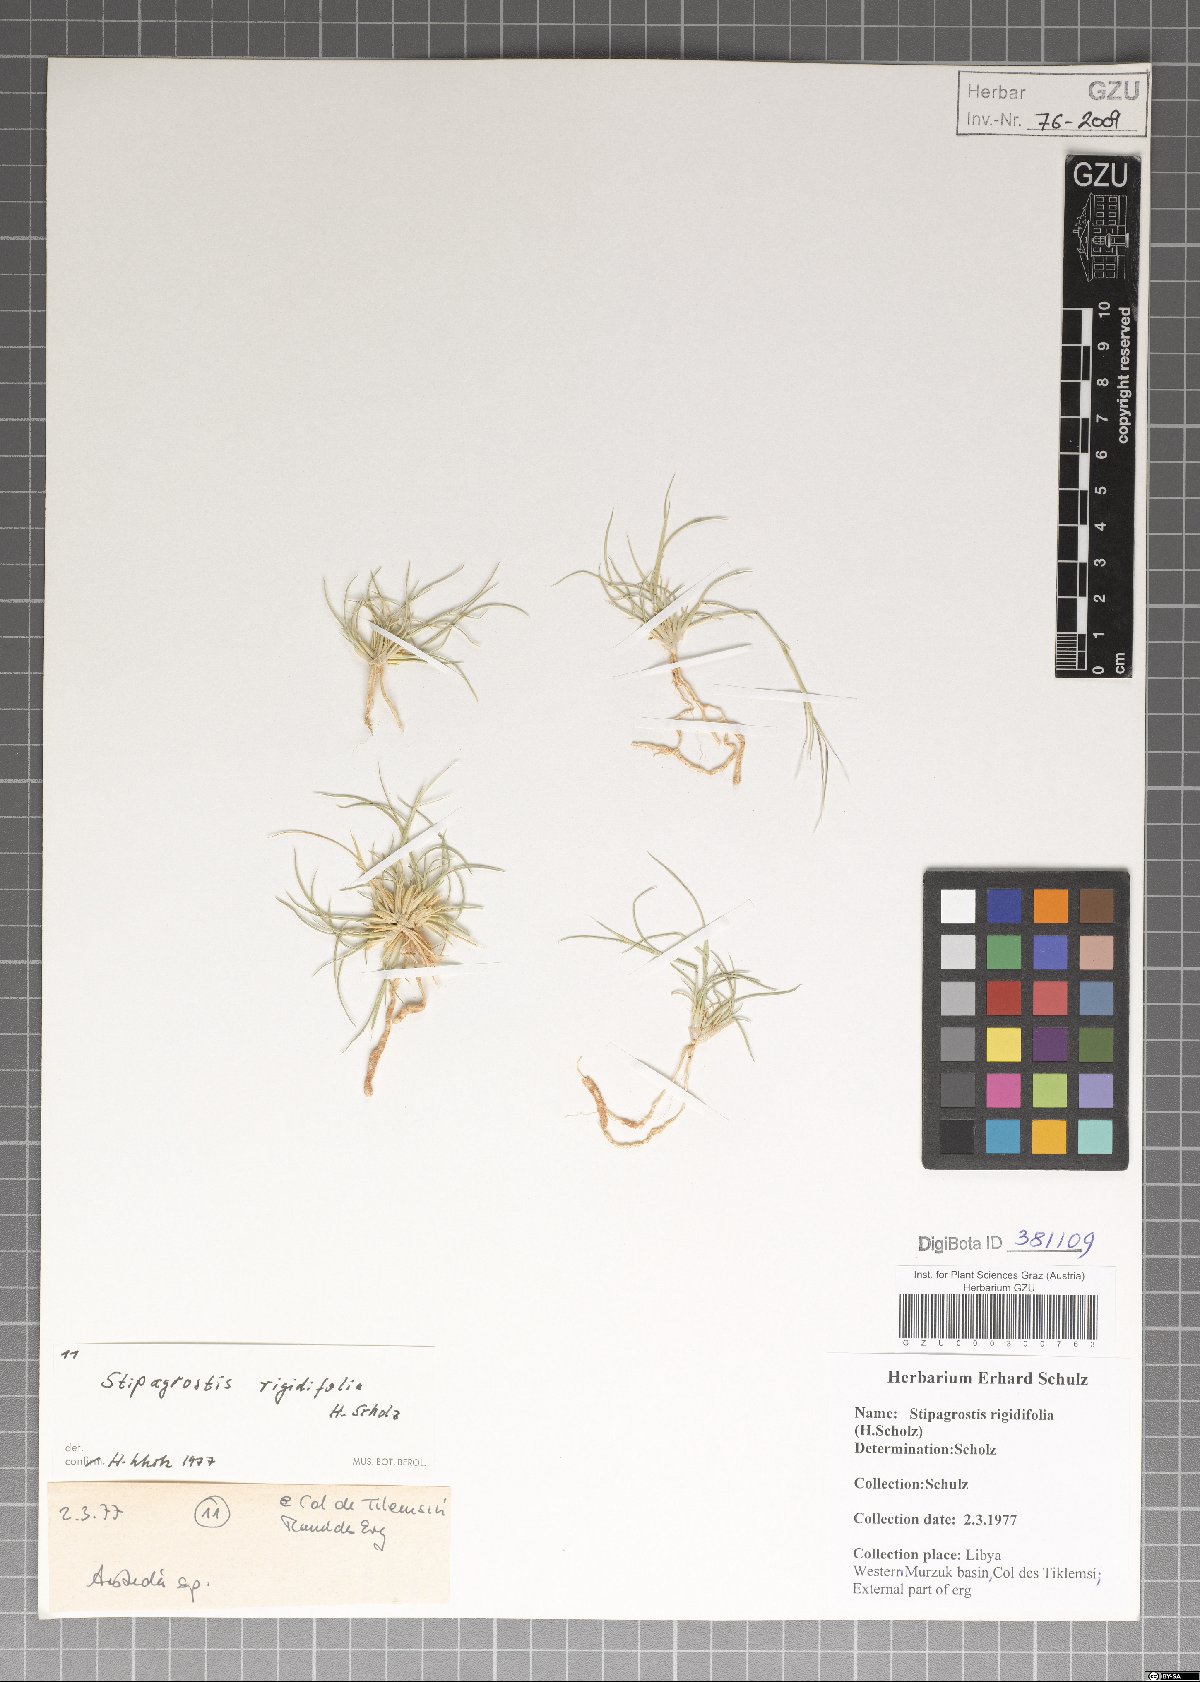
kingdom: Plantae
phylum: Tracheophyta
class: Liliopsida
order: Poales
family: Poaceae
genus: Stipagrostis
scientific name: Stipagrostis rigidifolia
